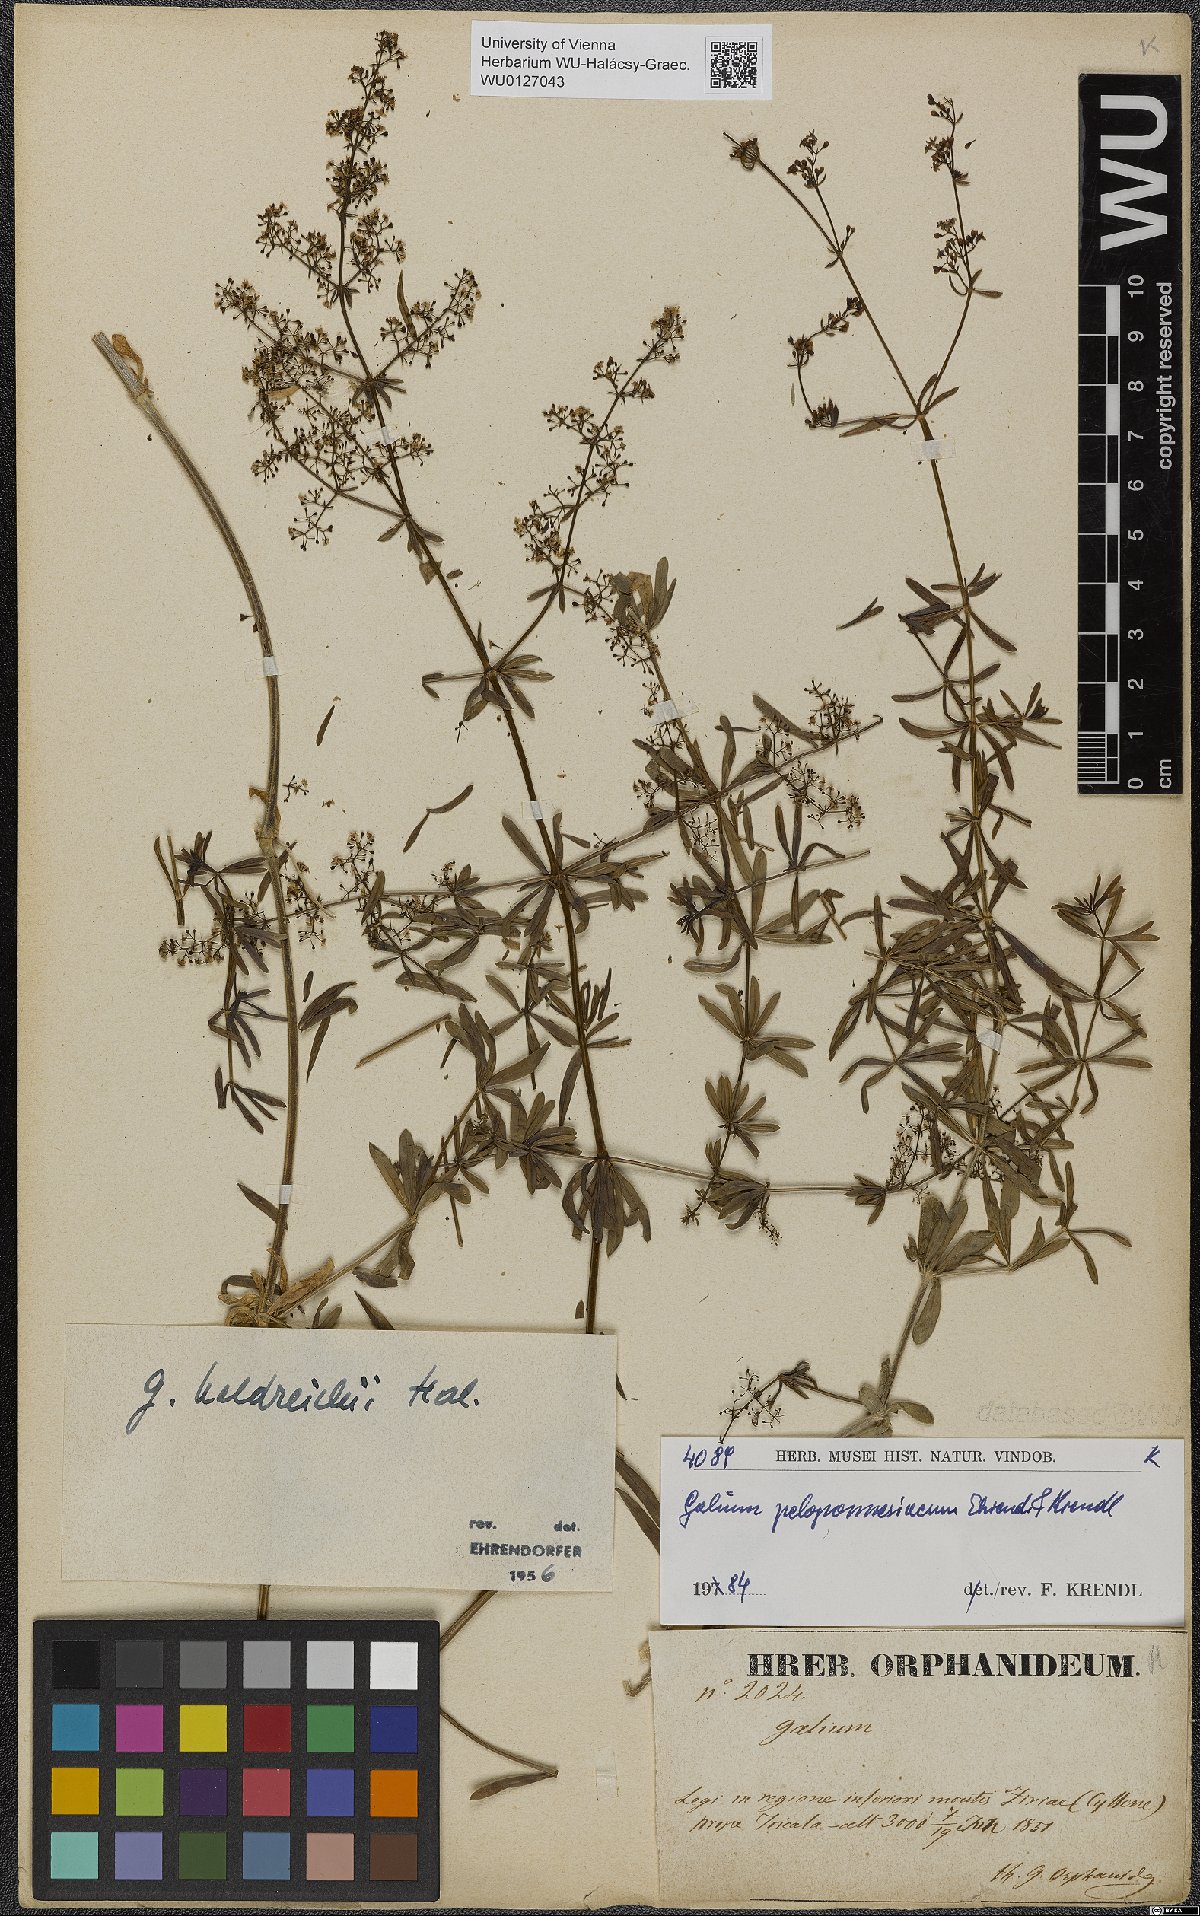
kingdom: Plantae
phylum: Tracheophyta
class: Magnoliopsida
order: Gentianales
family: Rubiaceae
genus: Galium
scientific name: Galium peloponnesiacum
